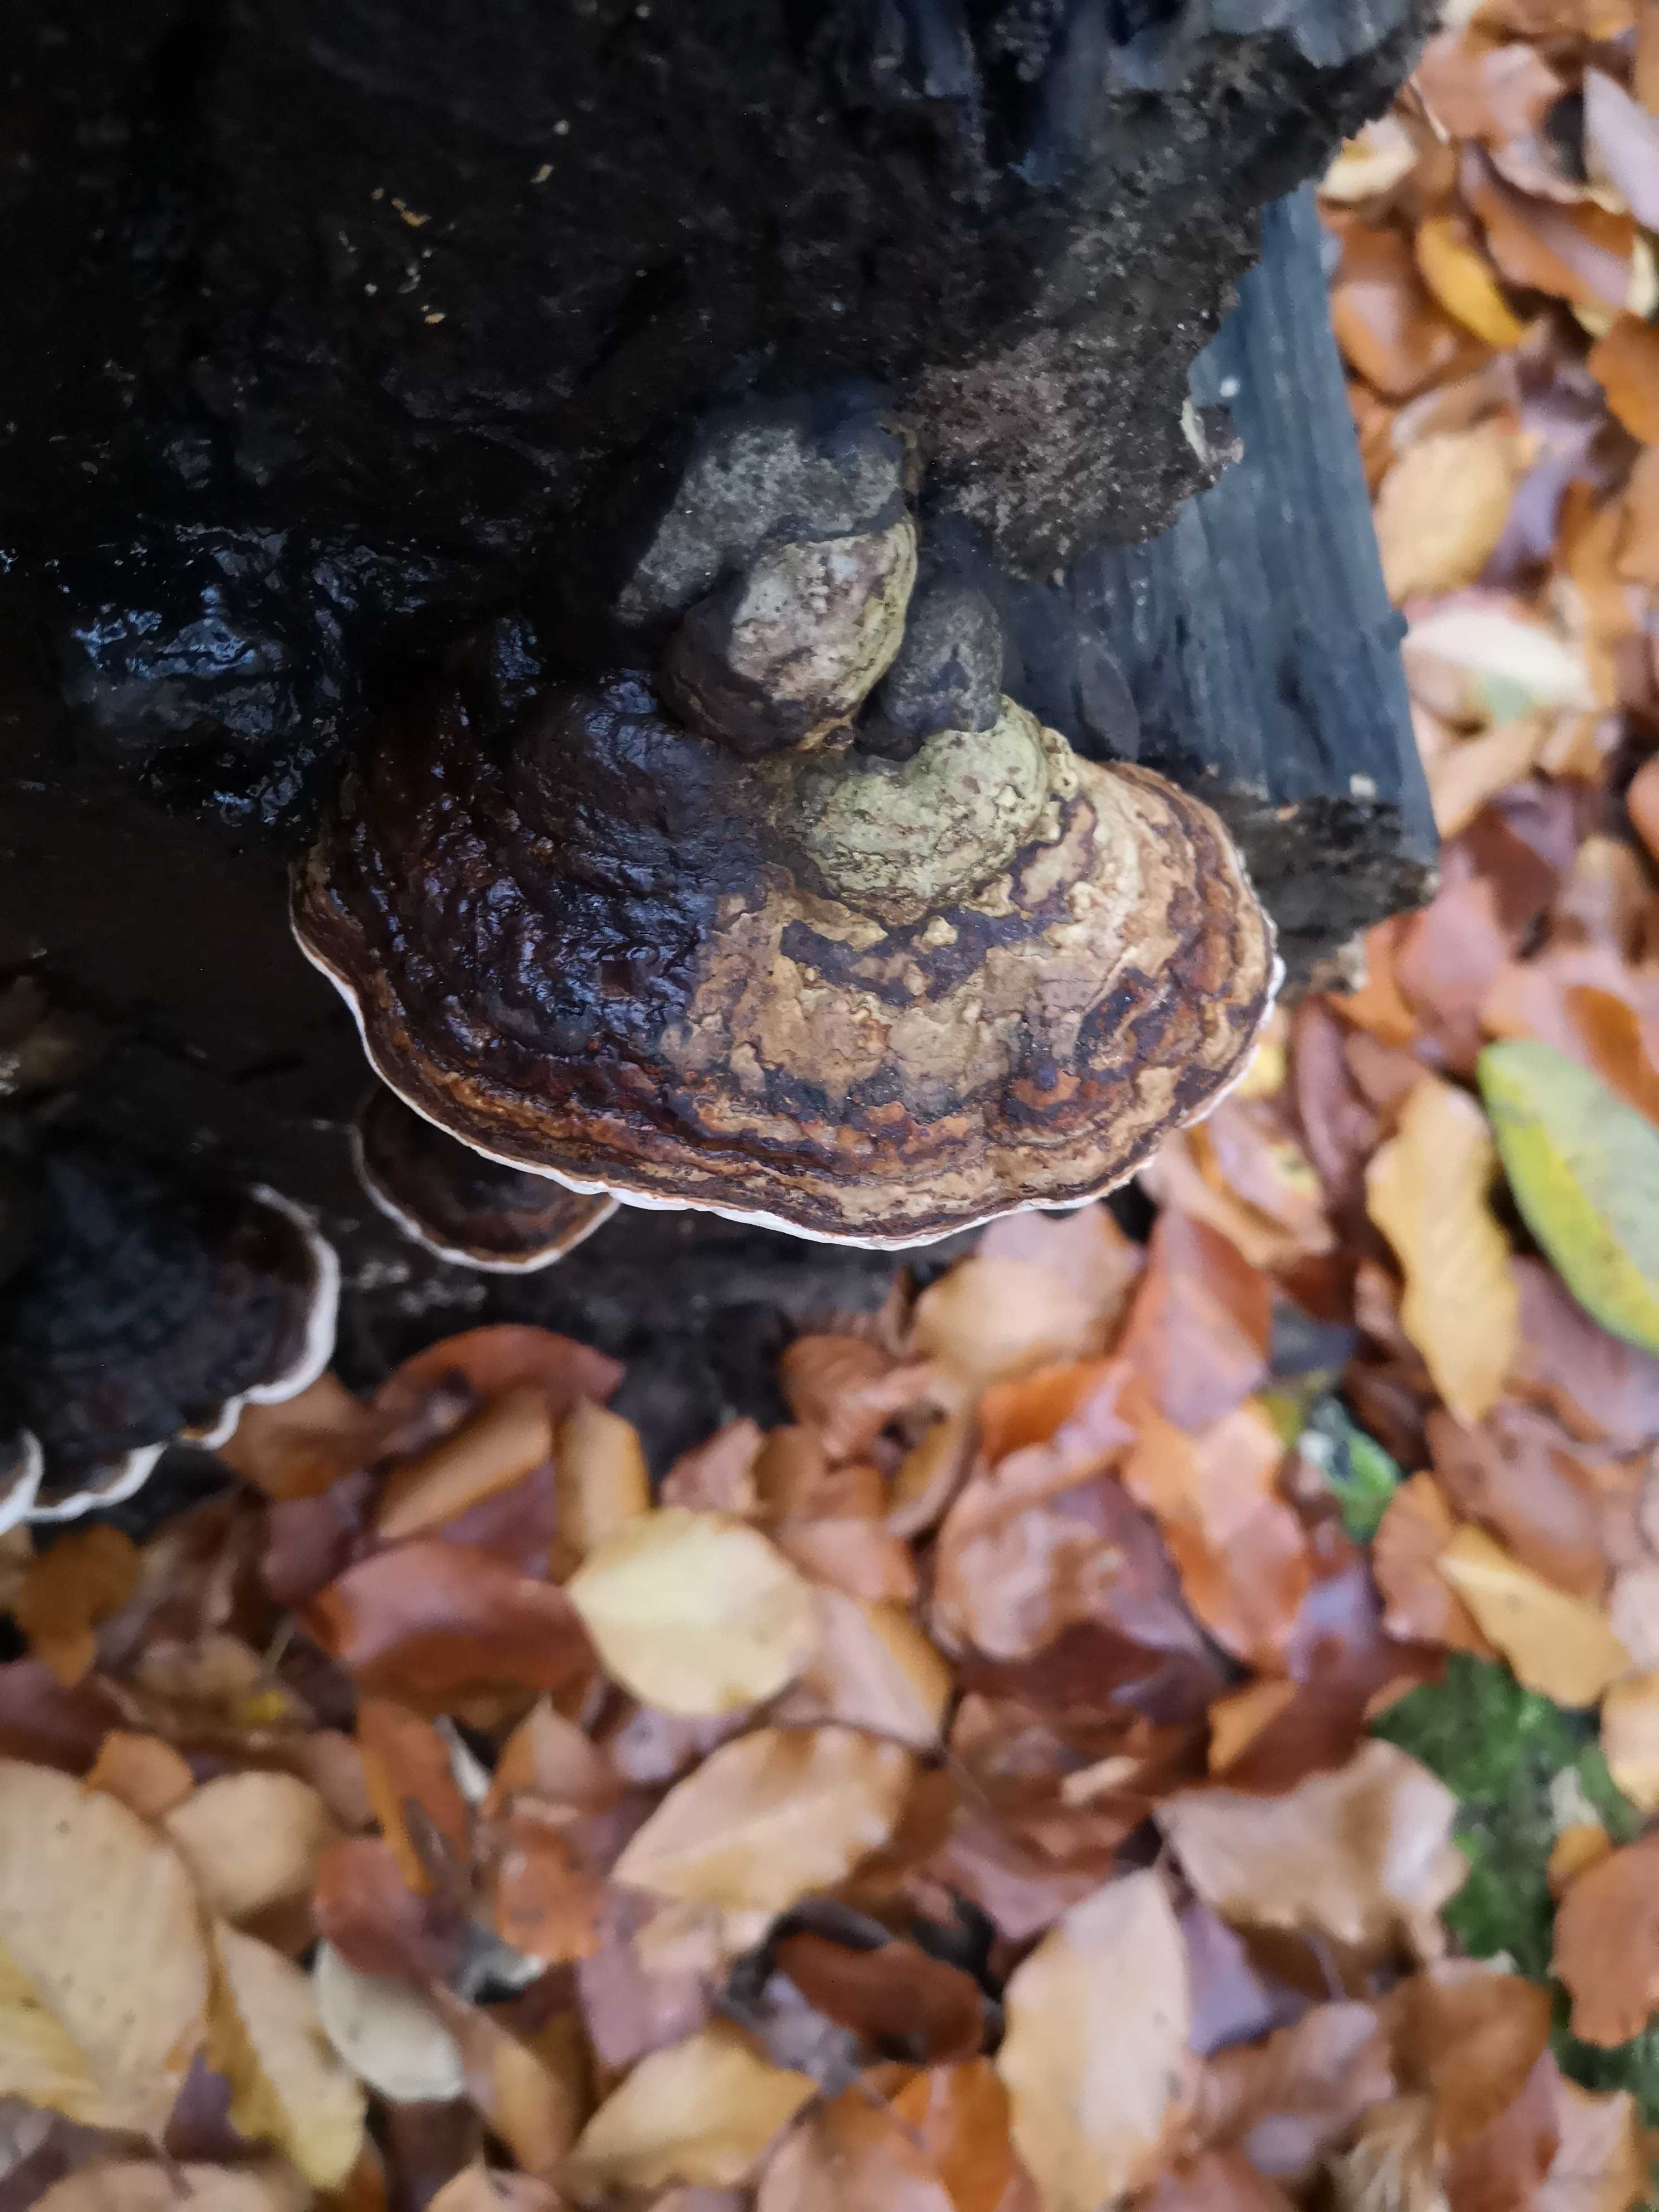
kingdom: Fungi
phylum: Basidiomycota
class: Agaricomycetes
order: Polyporales
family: Polyporaceae
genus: Fomes
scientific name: Fomes fomentarius
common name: tøndersvamp
